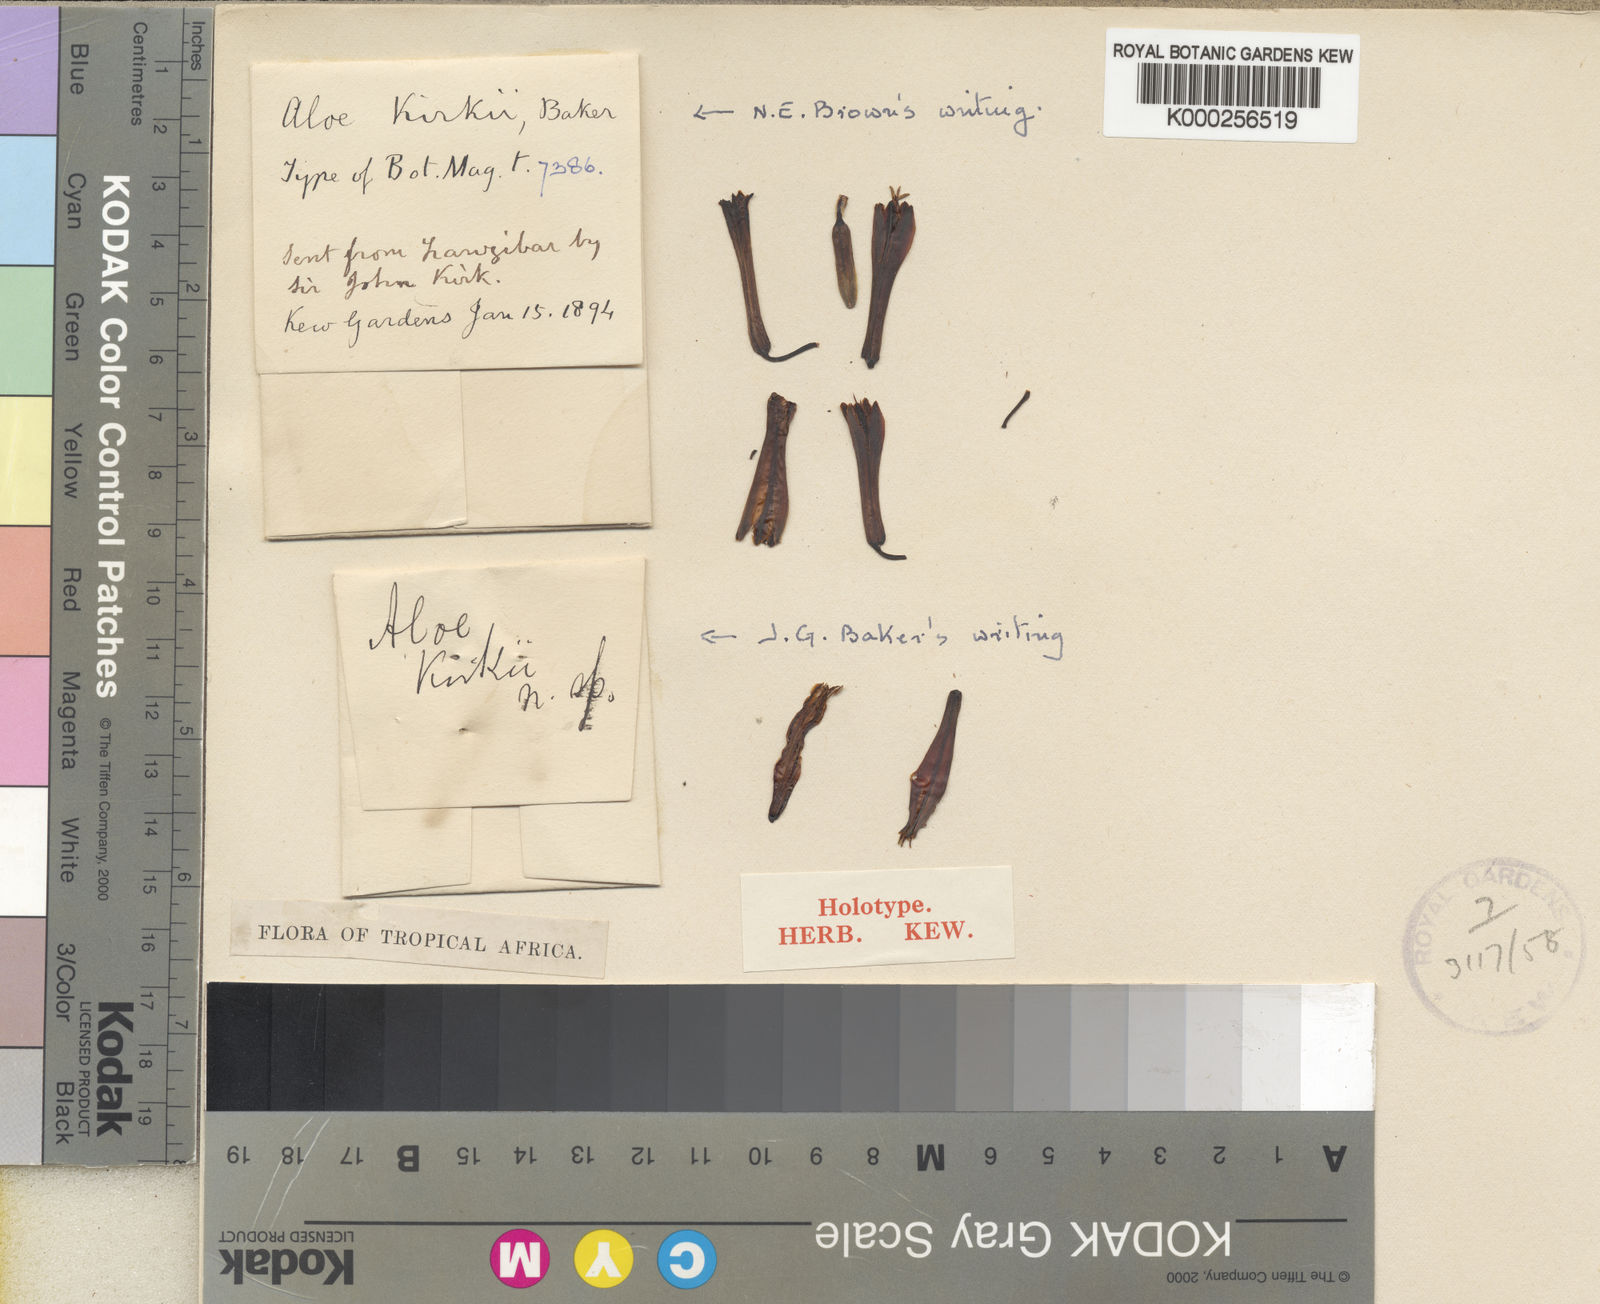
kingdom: Plantae
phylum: Tracheophyta
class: Liliopsida
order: Asparagales
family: Asphodelaceae
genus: Aloe
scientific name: Aloe kirkii
